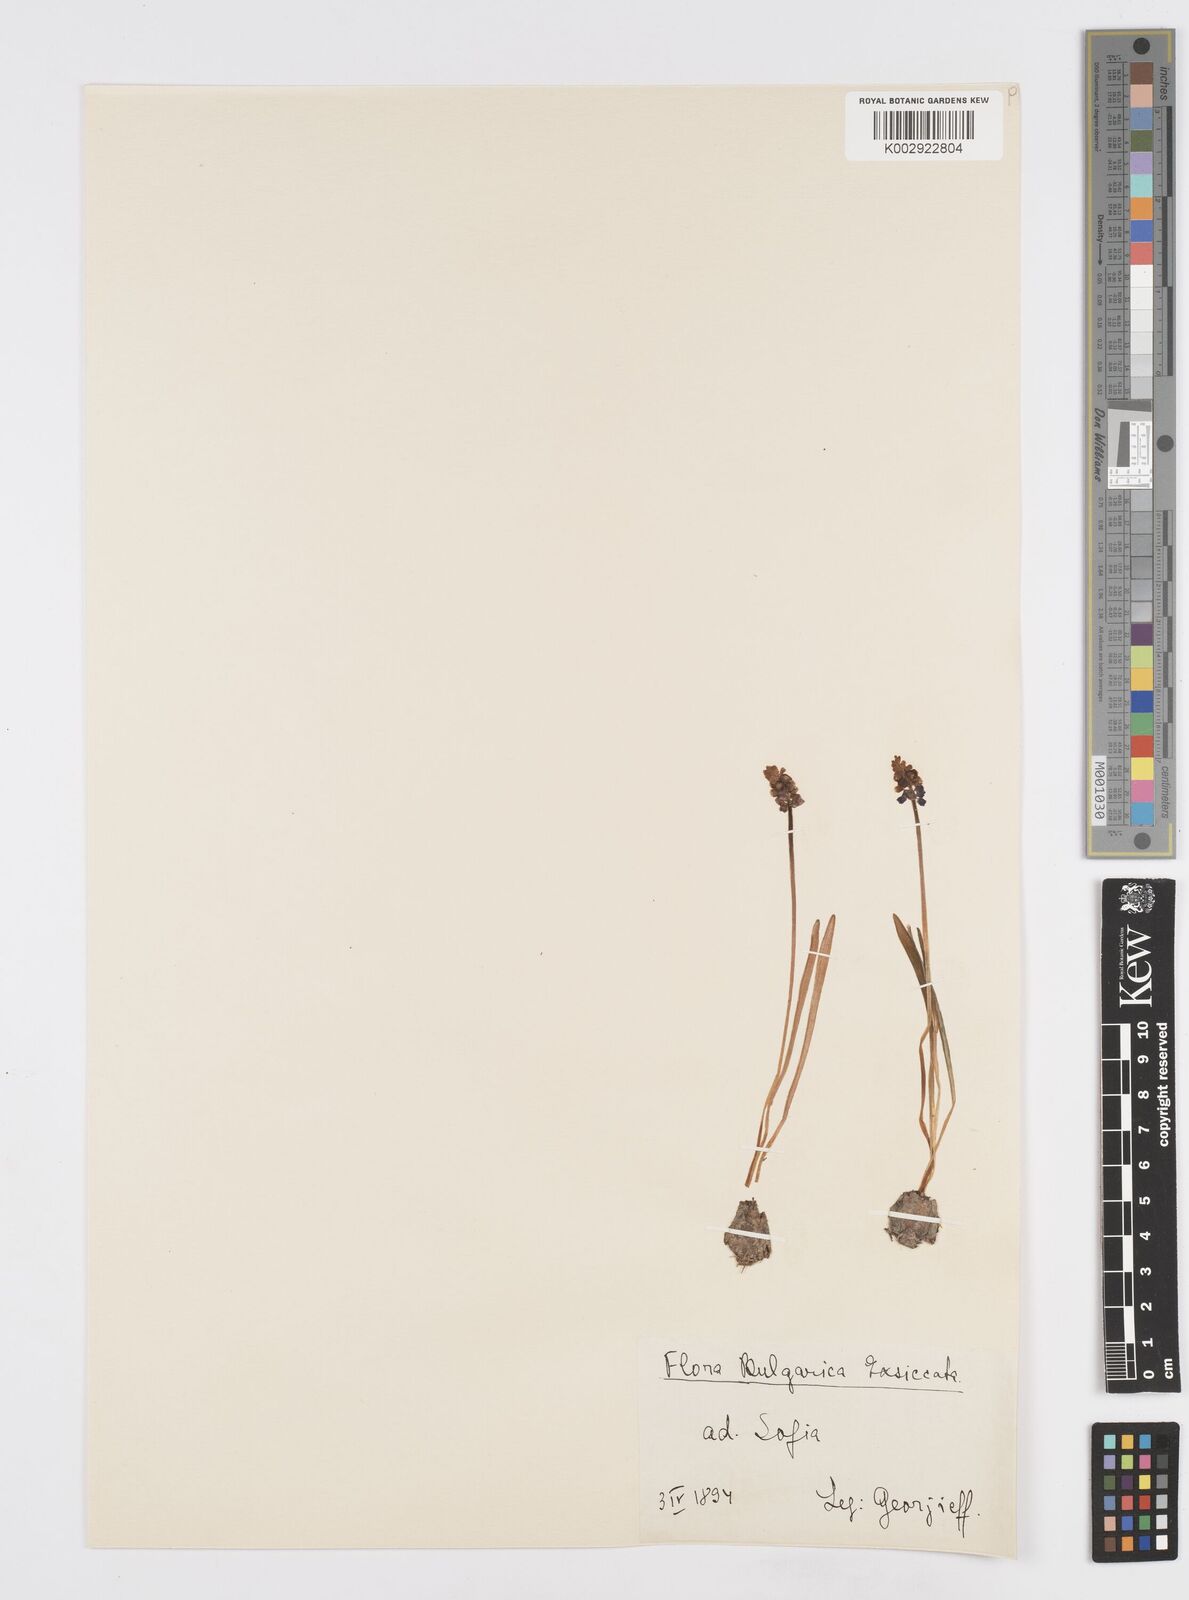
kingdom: Plantae
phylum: Tracheophyta
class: Liliopsida
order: Asparagales
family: Asparagaceae
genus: Muscari
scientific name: Muscari botryoides
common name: Compact grape-hyacinth
